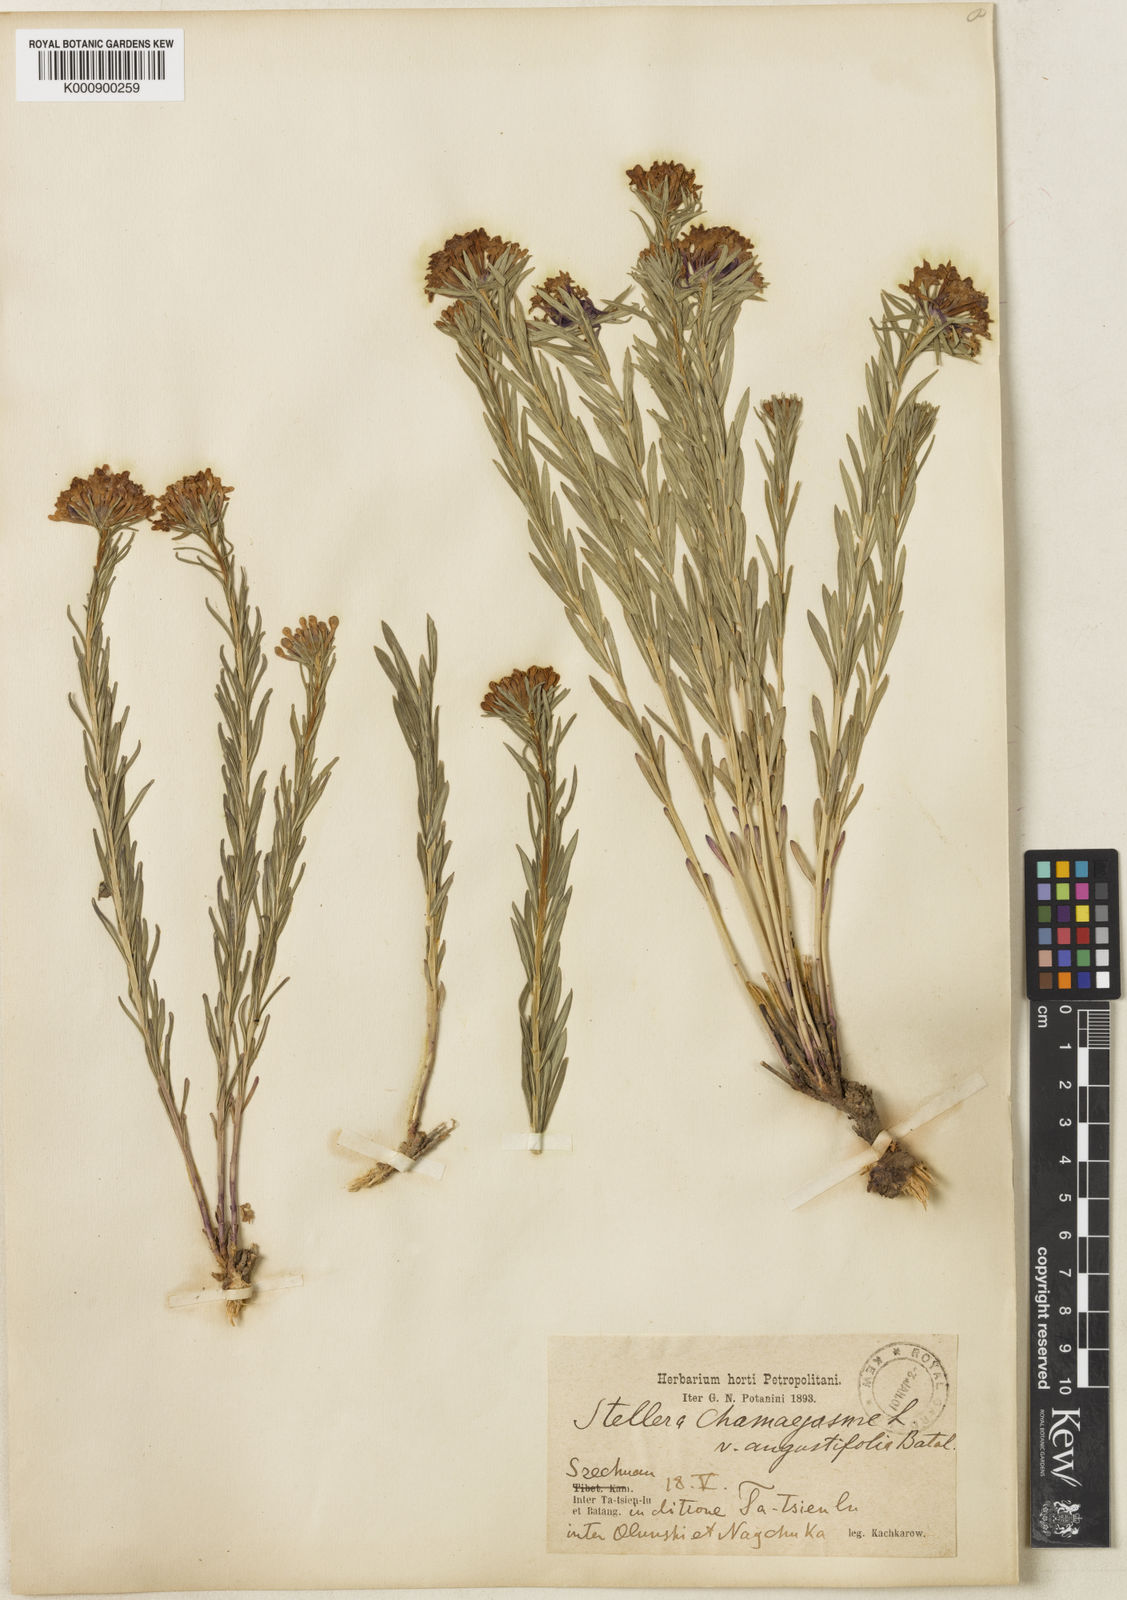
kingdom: Plantae
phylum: Tracheophyta
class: Magnoliopsida
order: Malvales
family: Thymelaeaceae
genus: Stellera
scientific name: Stellera chamaejasme
